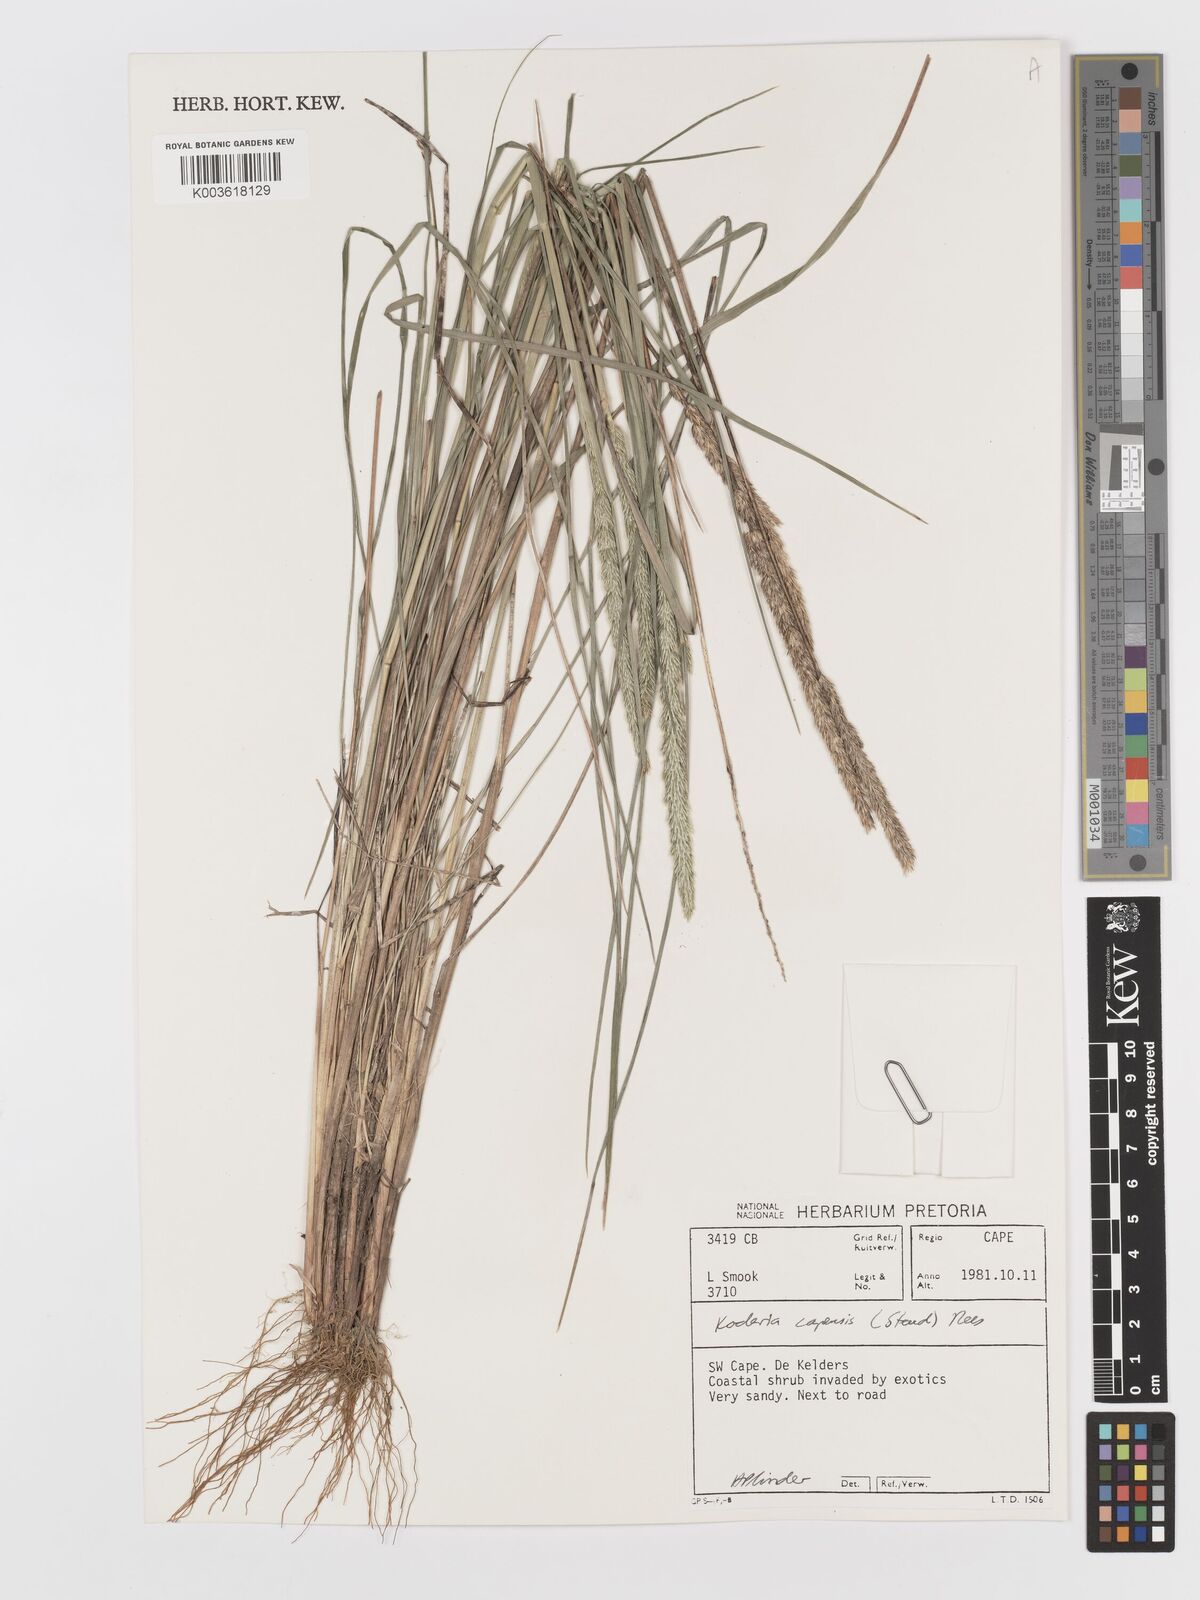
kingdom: Plantae
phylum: Tracheophyta
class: Liliopsida
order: Poales
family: Poaceae
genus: Koeleria
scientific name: Koeleria capensis
